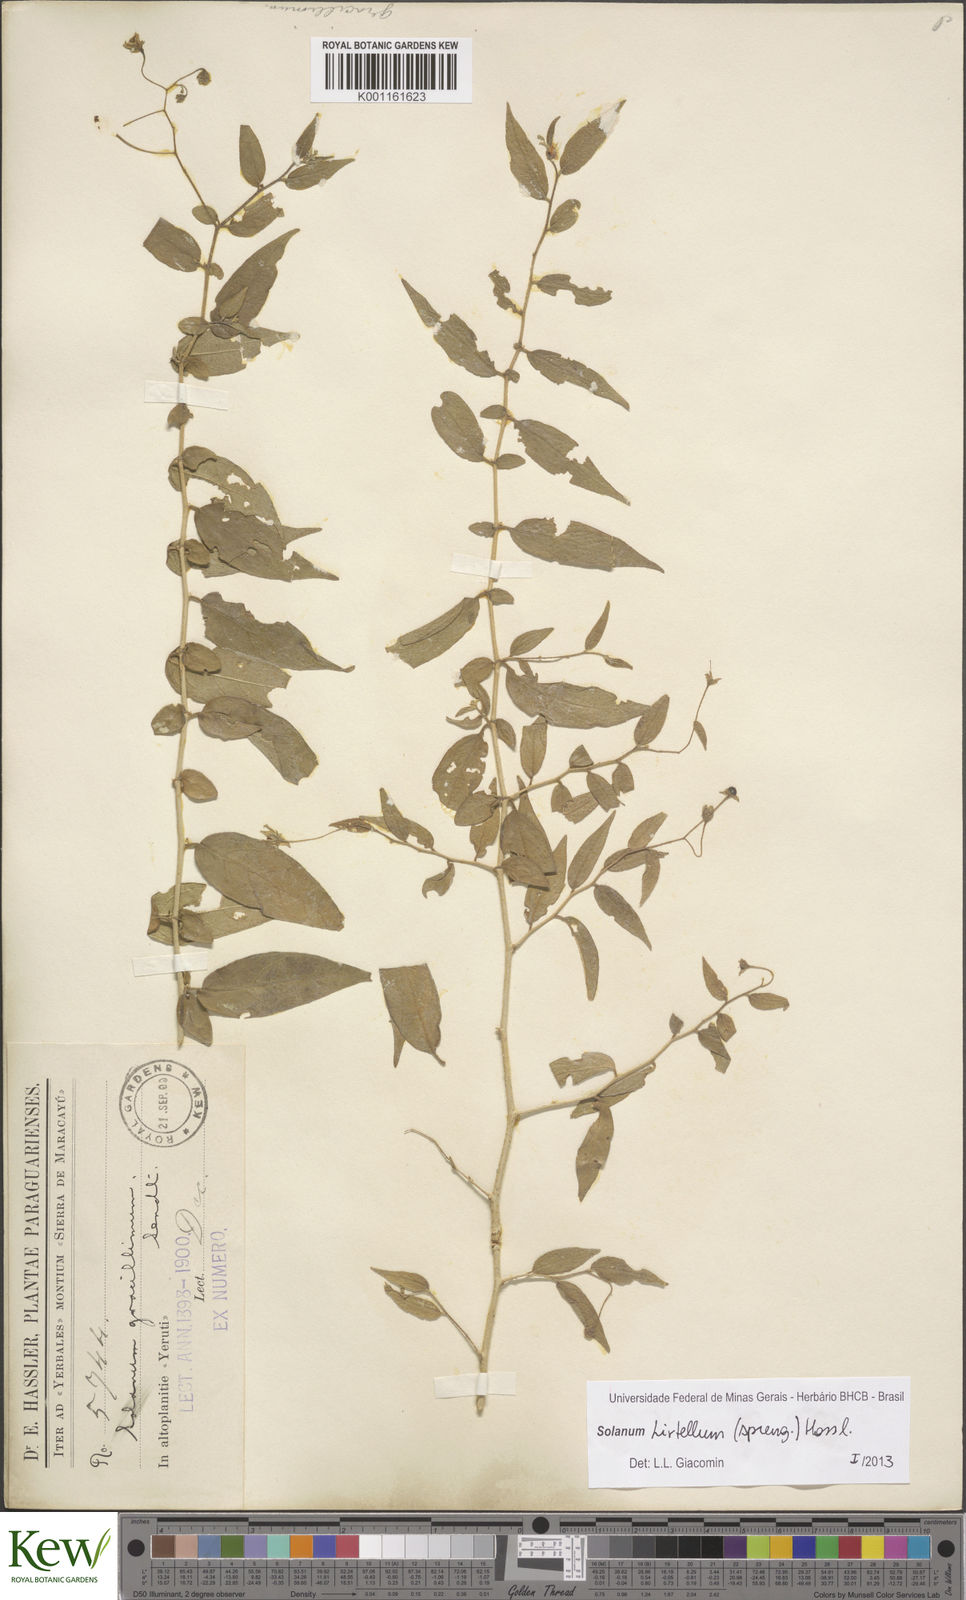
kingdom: Plantae
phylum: Tracheophyta
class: Magnoliopsida
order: Solanales
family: Solanaceae
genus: Solanum
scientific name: Solanum hirtellum
